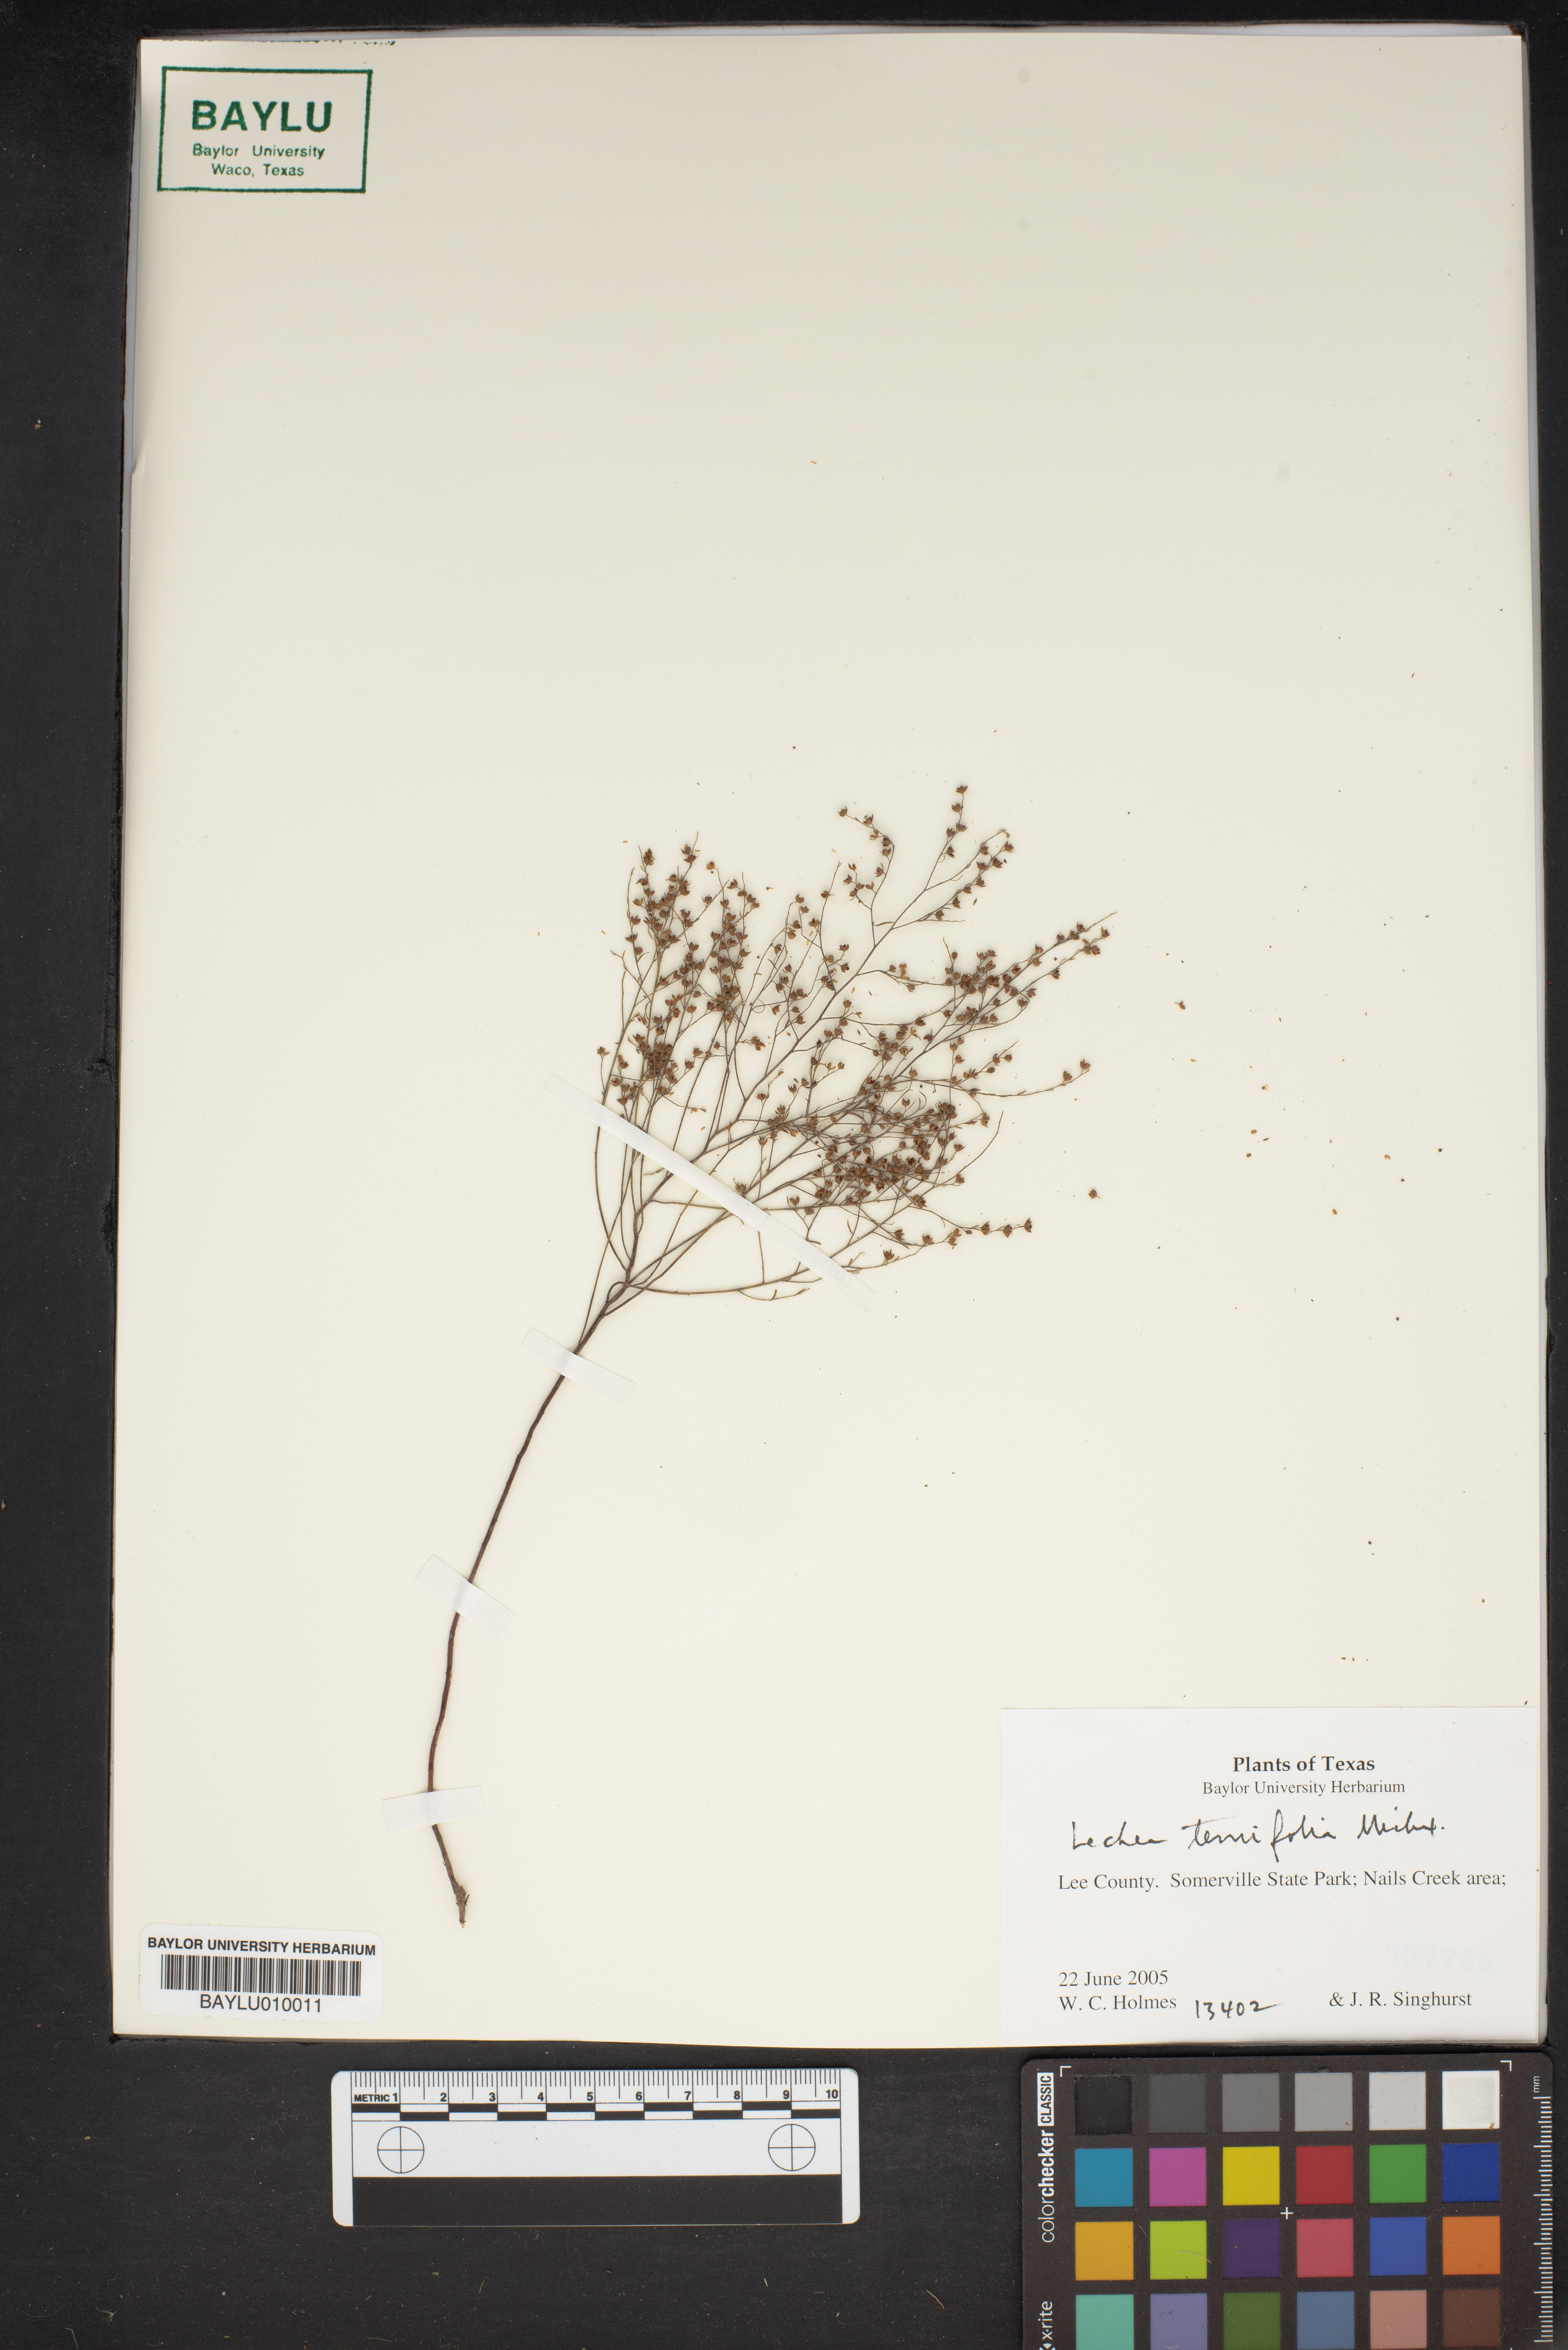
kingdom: Plantae
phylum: Tracheophyta
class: Magnoliopsida
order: Malvales
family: Cistaceae
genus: Lechea
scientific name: Lechea tenuifolia
